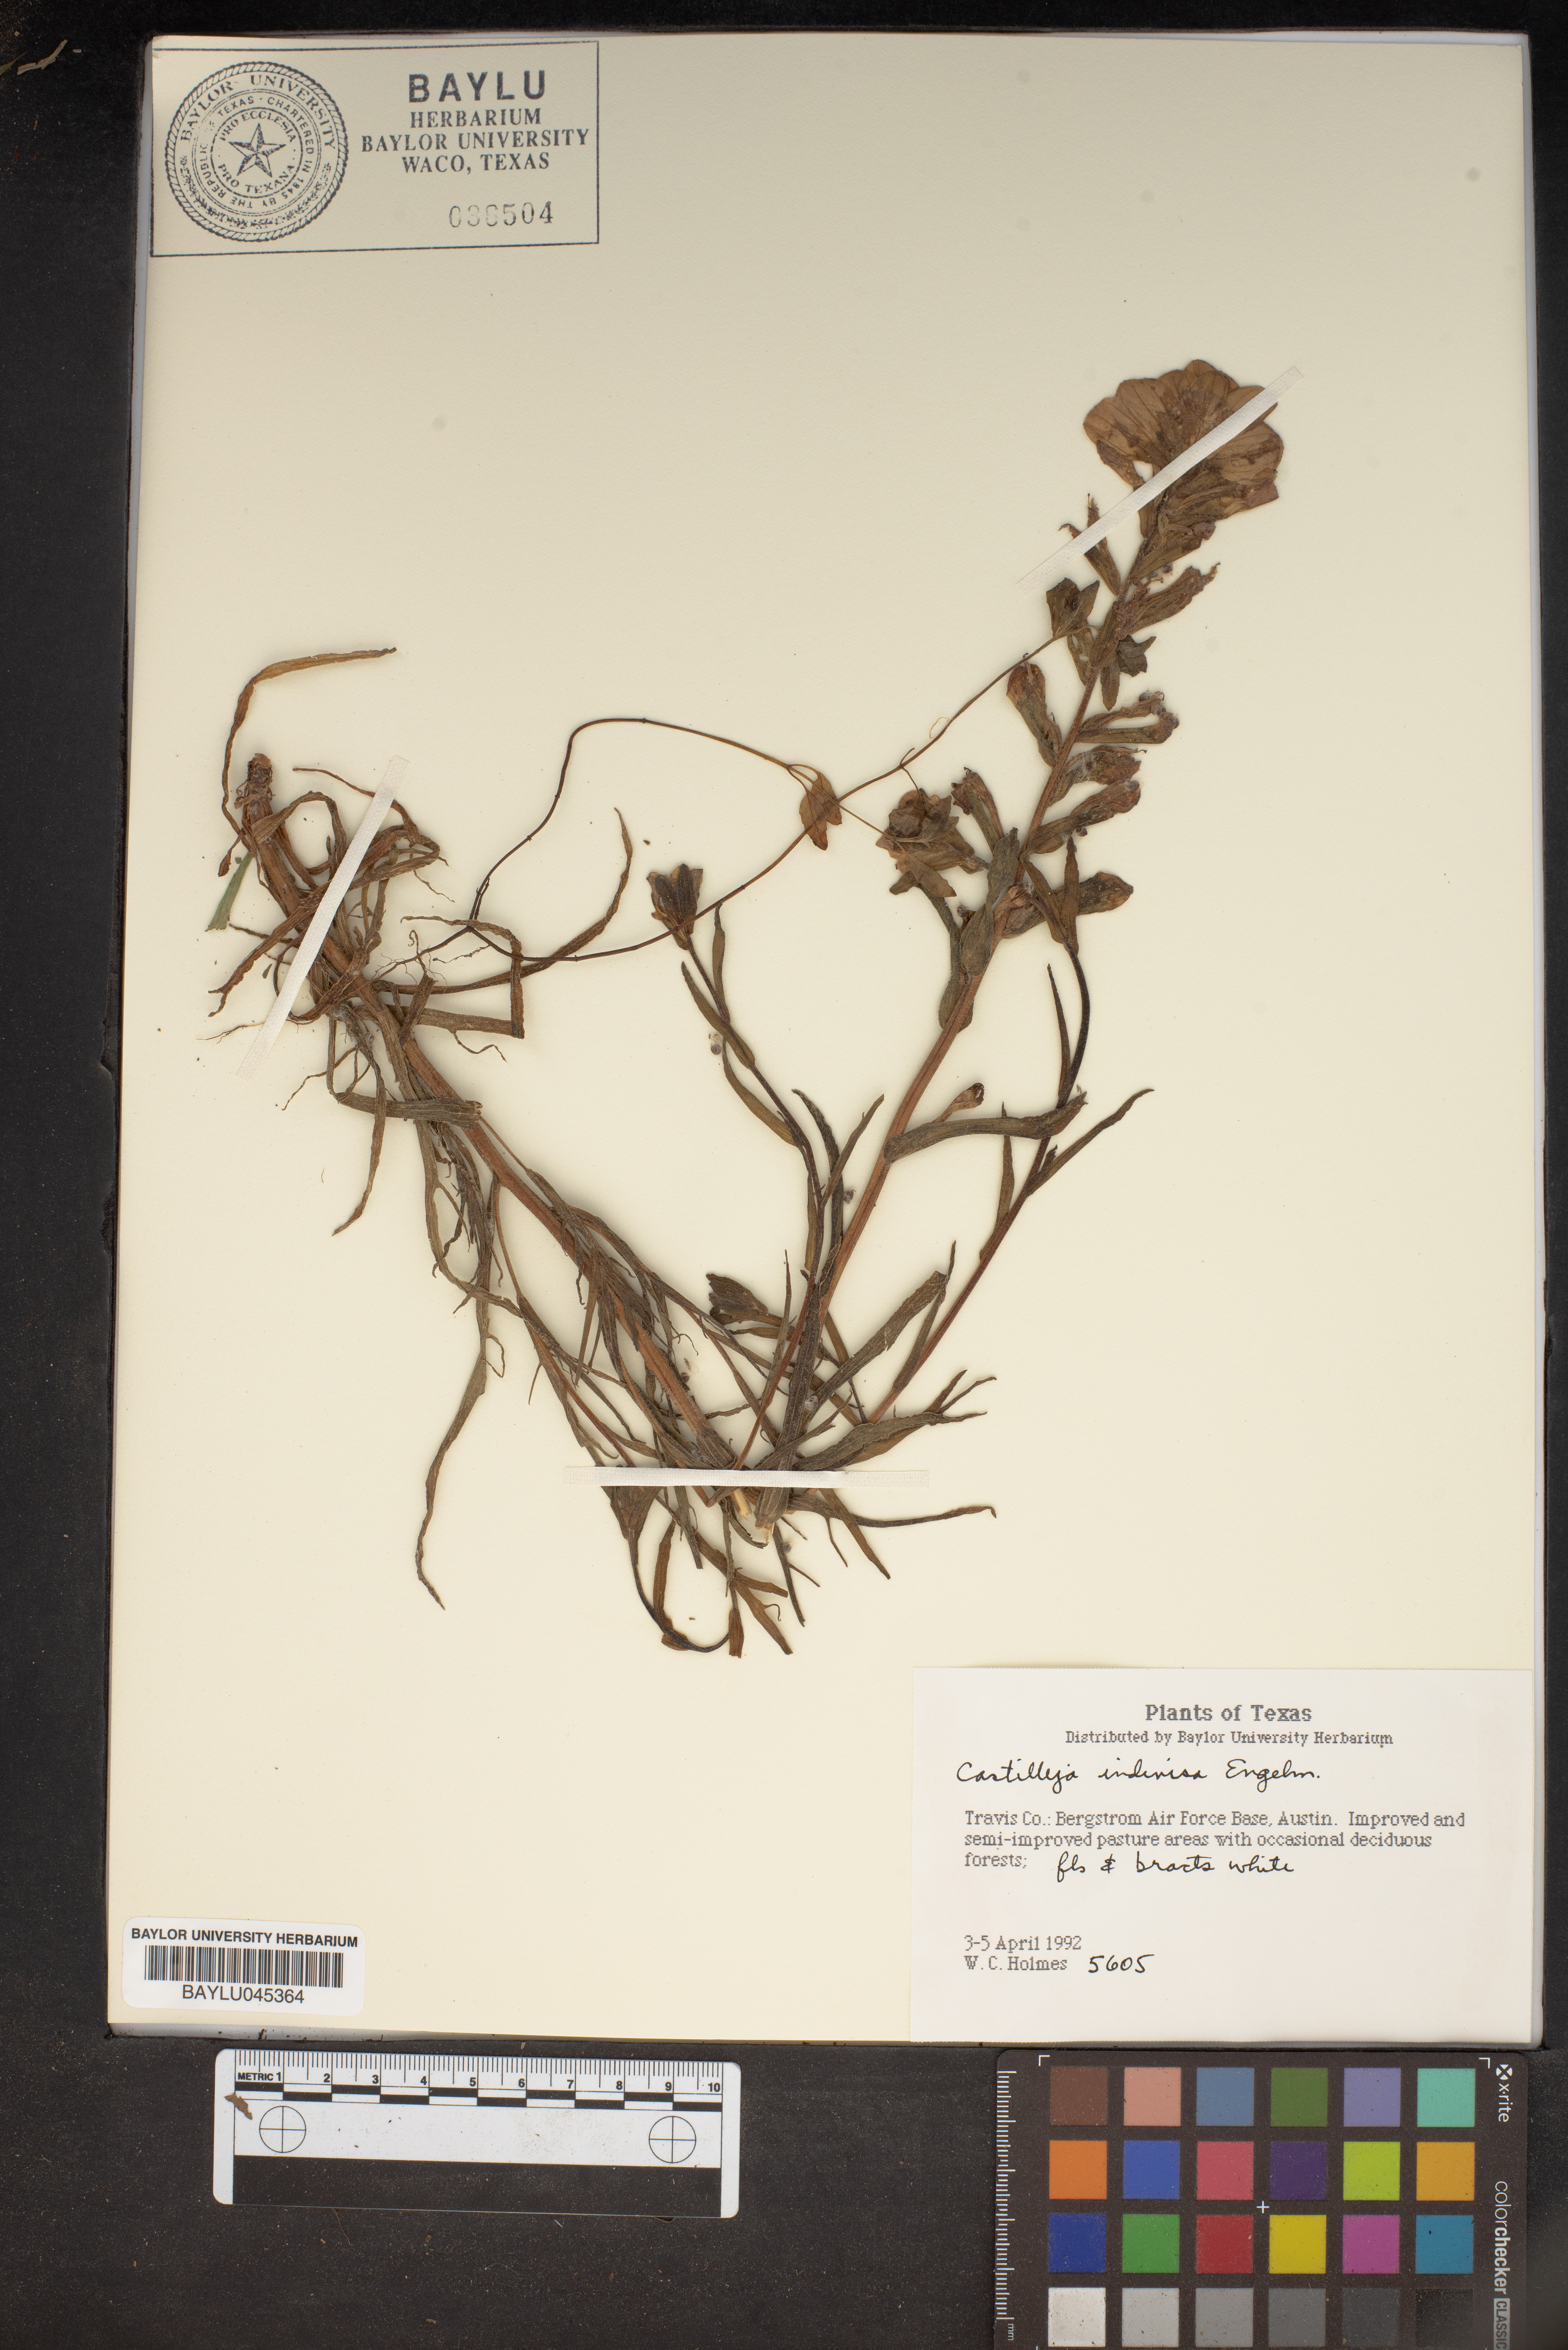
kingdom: Plantae
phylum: Tracheophyta
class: Magnoliopsida
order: Lamiales
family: Orobanchaceae
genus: Castilleja
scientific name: Castilleja indivisa
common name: Texas paintbrush
